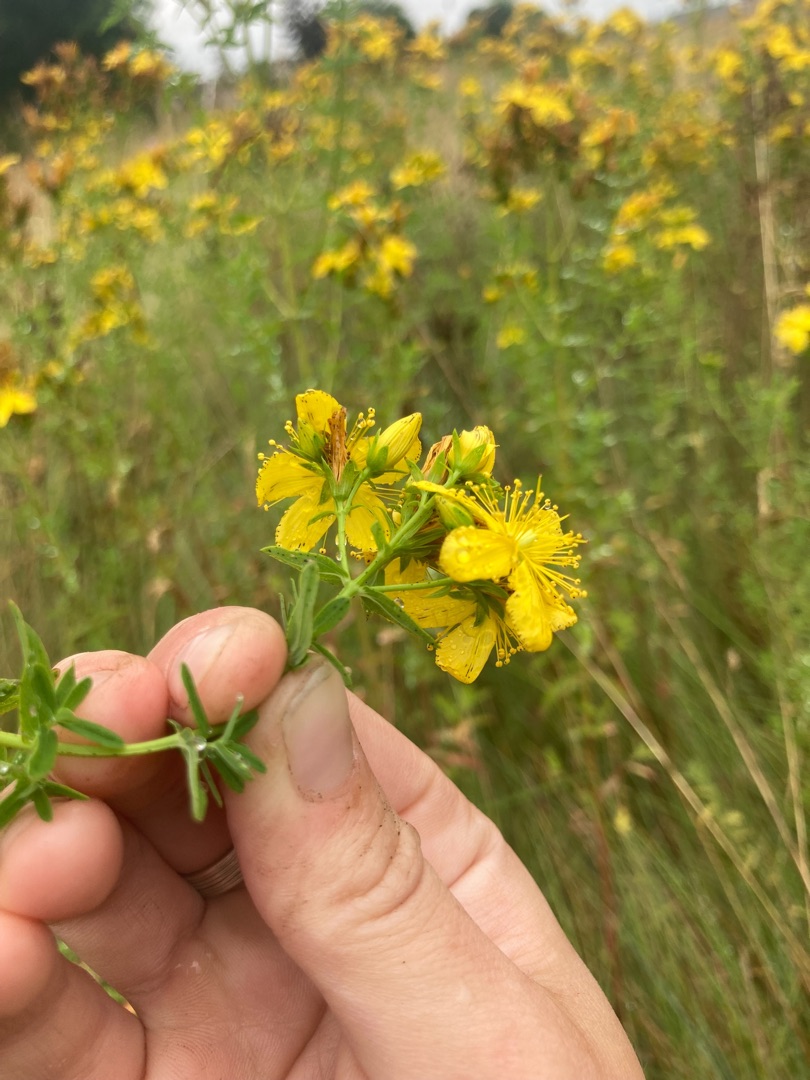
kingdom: Plantae
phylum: Tracheophyta
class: Magnoliopsida
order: Malpighiales
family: Hypericaceae
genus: Hypericum
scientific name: Hypericum perforatum
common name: Prikbladet perikon
